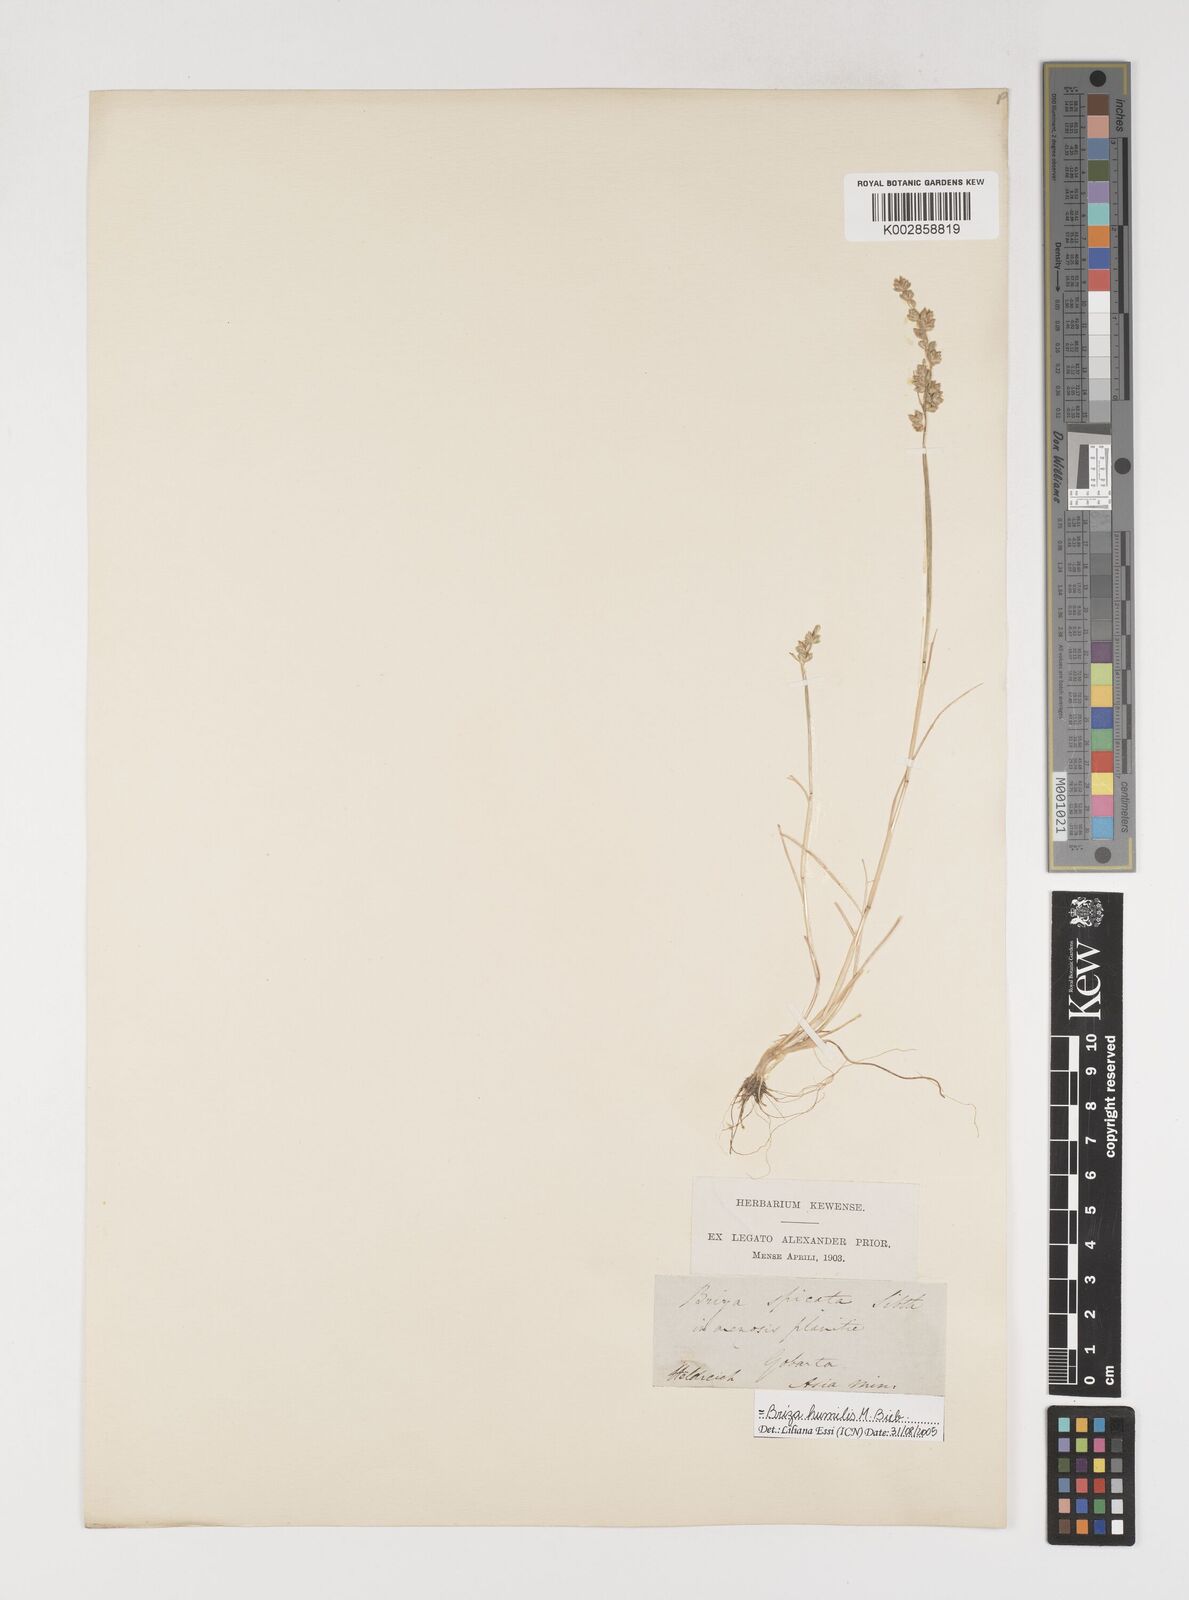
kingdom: Plantae
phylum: Tracheophyta
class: Liliopsida
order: Poales
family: Poaceae
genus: Briza
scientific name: Briza humilis
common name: Spiked quaking grass
